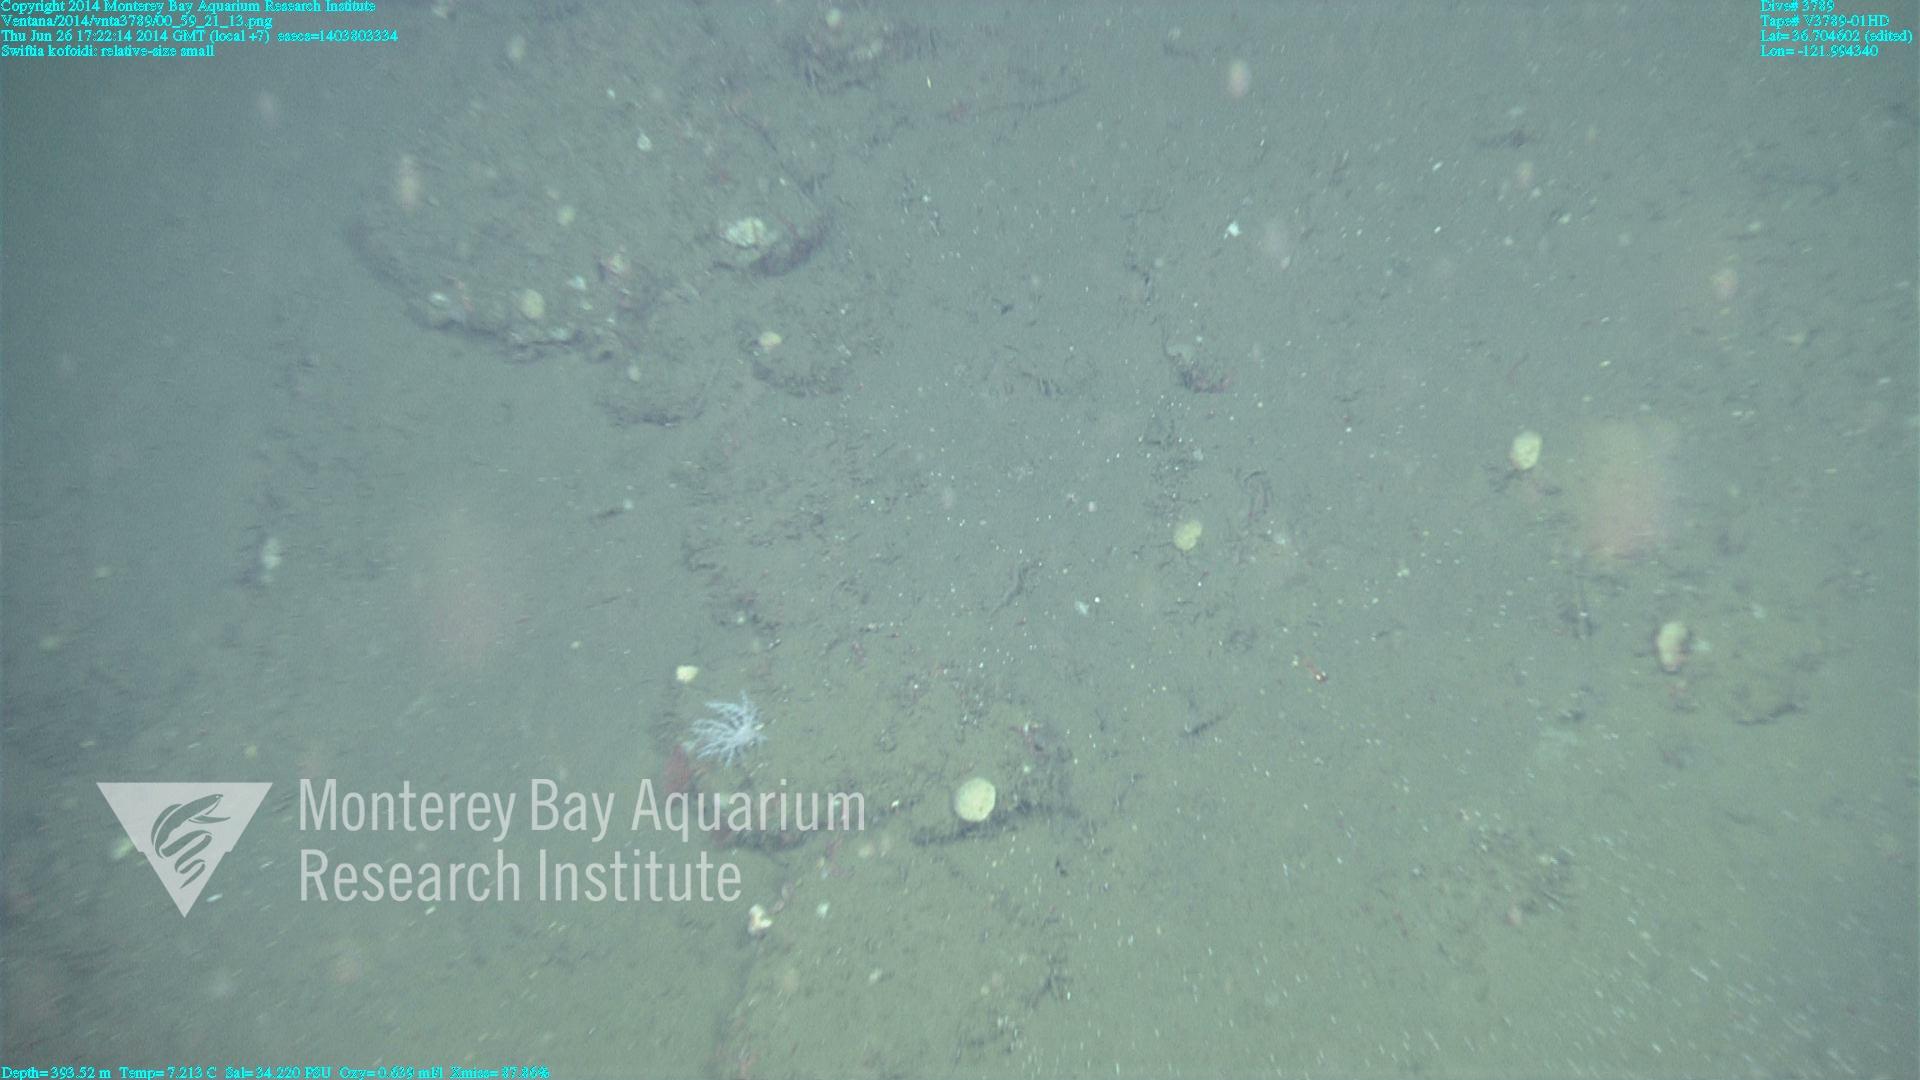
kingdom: Animalia
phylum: Cnidaria
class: Anthozoa
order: Malacalcyonacea
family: Gorgoniidae
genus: Callistephanus
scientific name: Callistephanus kofoidi
